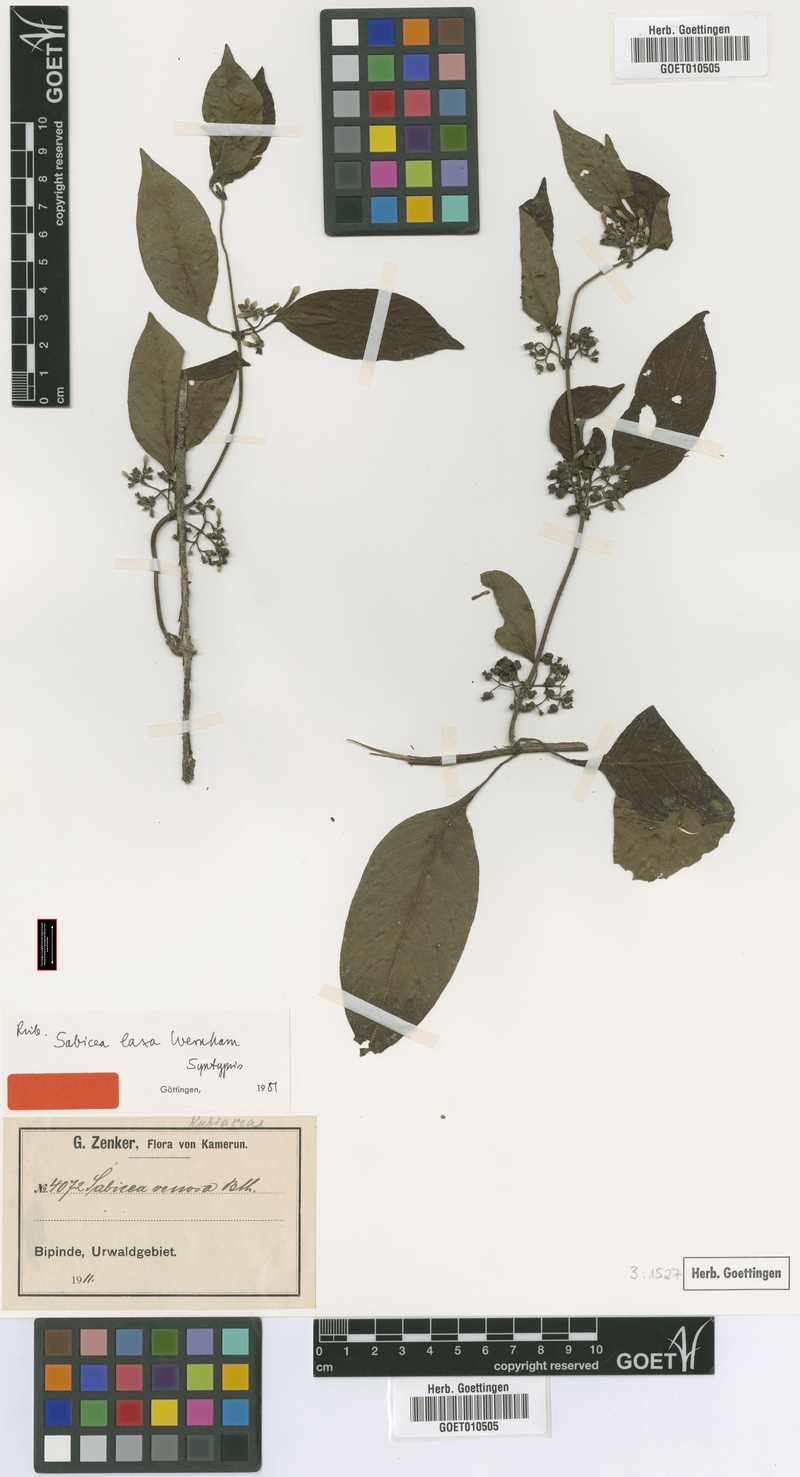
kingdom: Plantae
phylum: Tracheophyta
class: Magnoliopsida
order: Gentianales
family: Rubiaceae
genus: Sabicea
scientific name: Sabicea laxa
